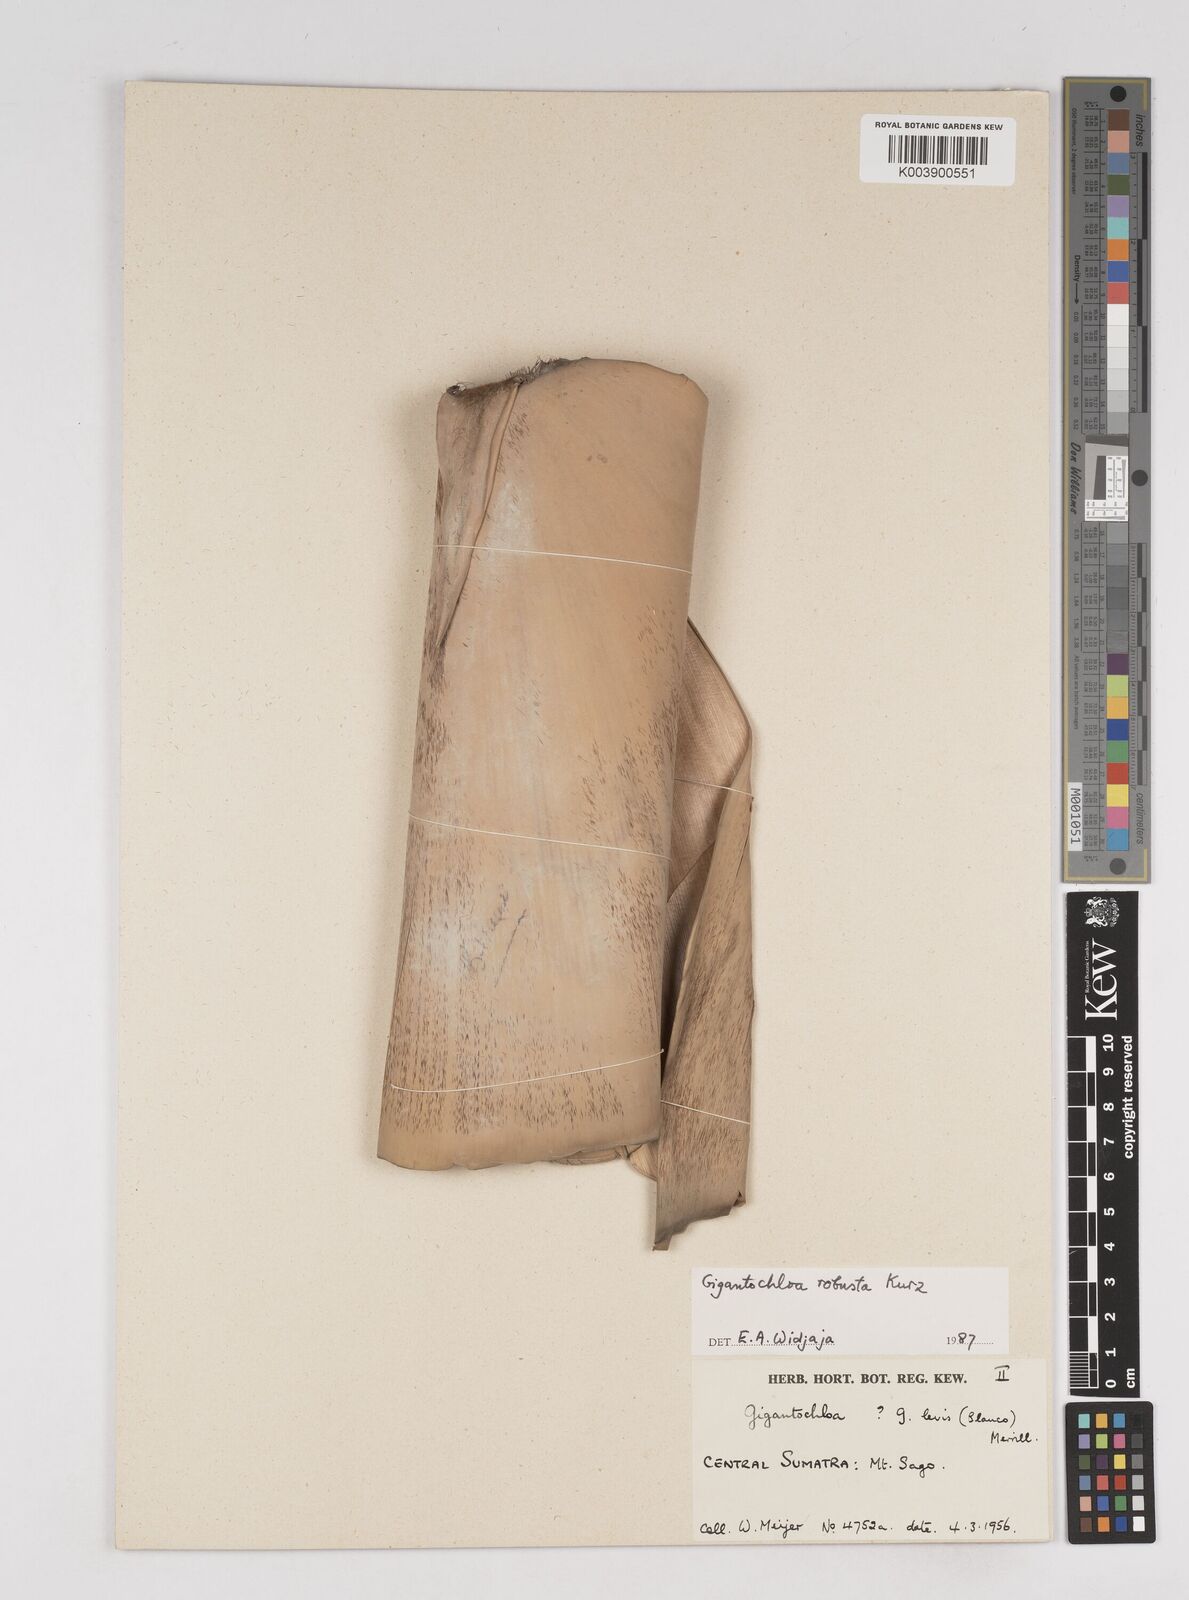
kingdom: Plantae
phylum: Tracheophyta
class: Liliopsida
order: Poales
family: Poaceae
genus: Gigantochloa
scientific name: Gigantochloa robusta
